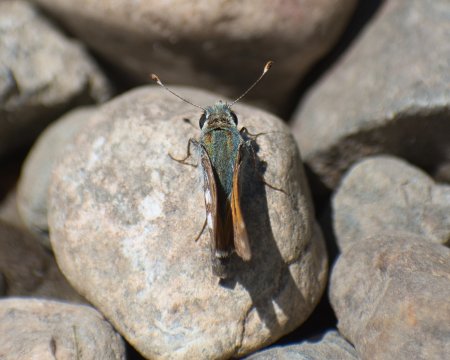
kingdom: Animalia
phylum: Arthropoda
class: Insecta
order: Lepidoptera
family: Hesperiidae
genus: Hesperia
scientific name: Hesperia juba
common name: Juba Skipper
